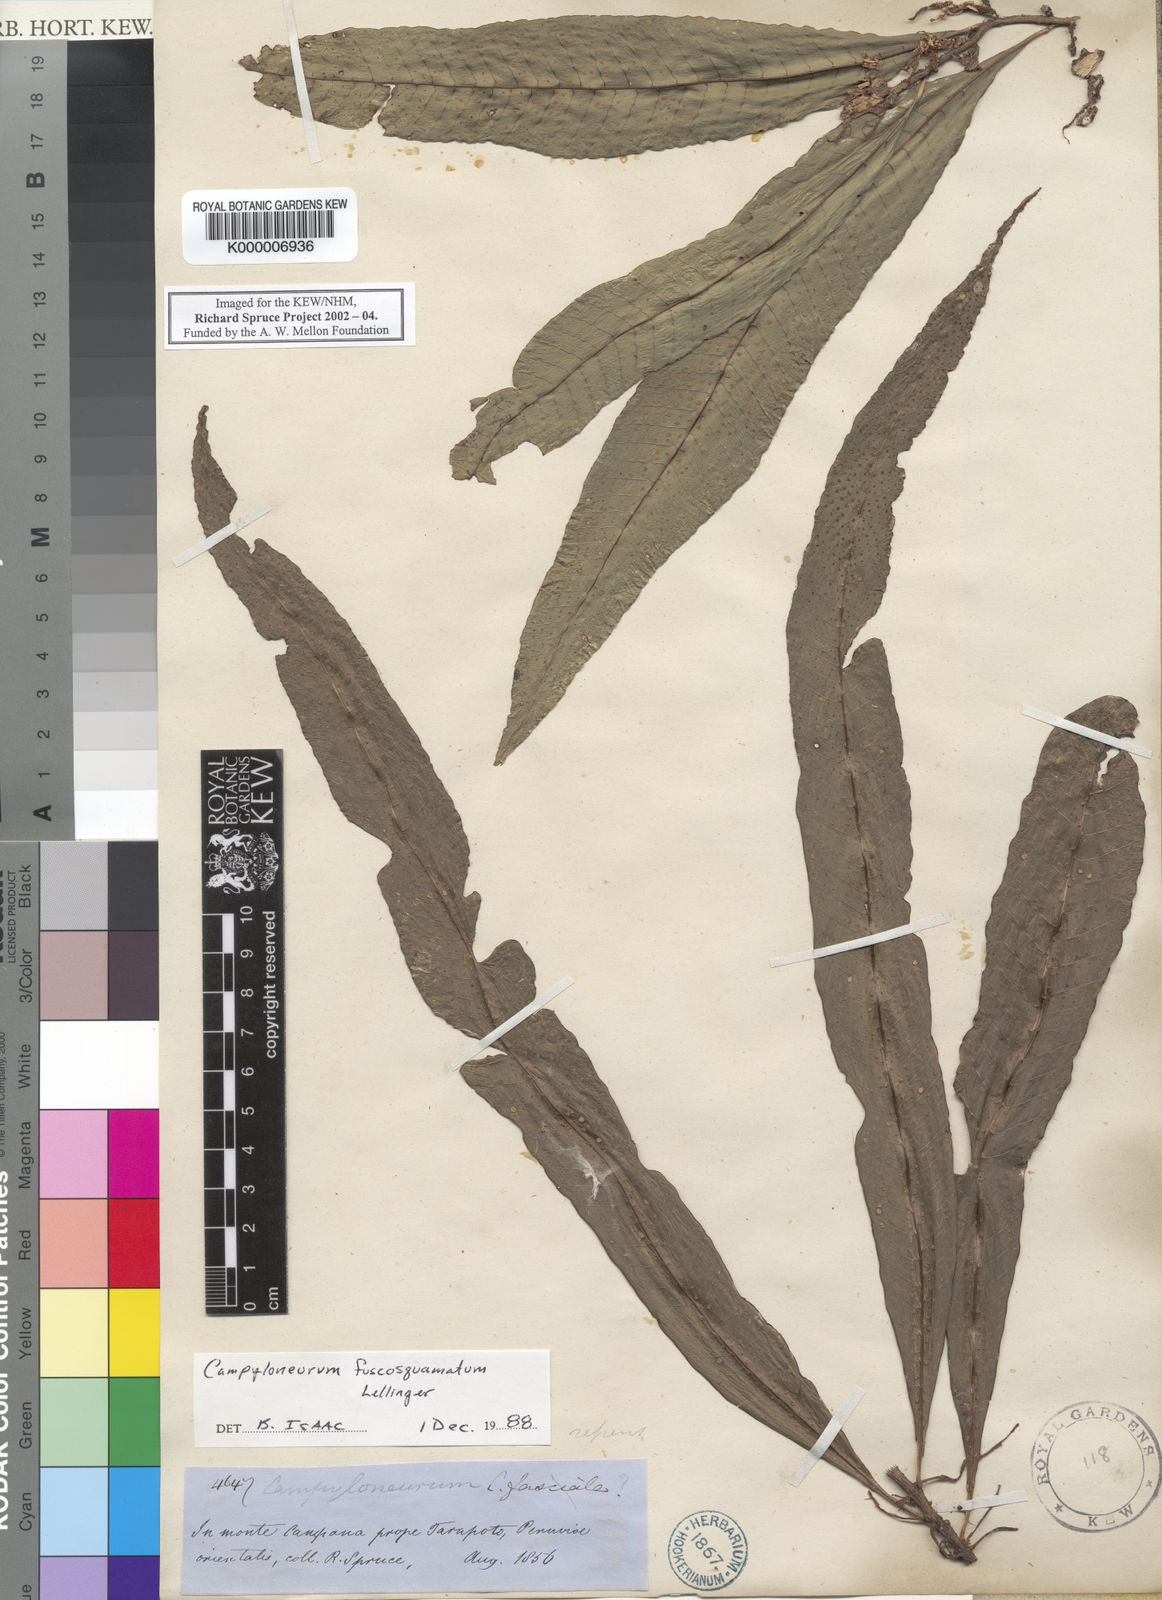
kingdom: Plantae
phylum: Tracheophyta
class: Polypodiopsida
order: Polypodiales
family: Polypodiaceae
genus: Campyloneurum
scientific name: Campyloneurum fuscosquamatum
